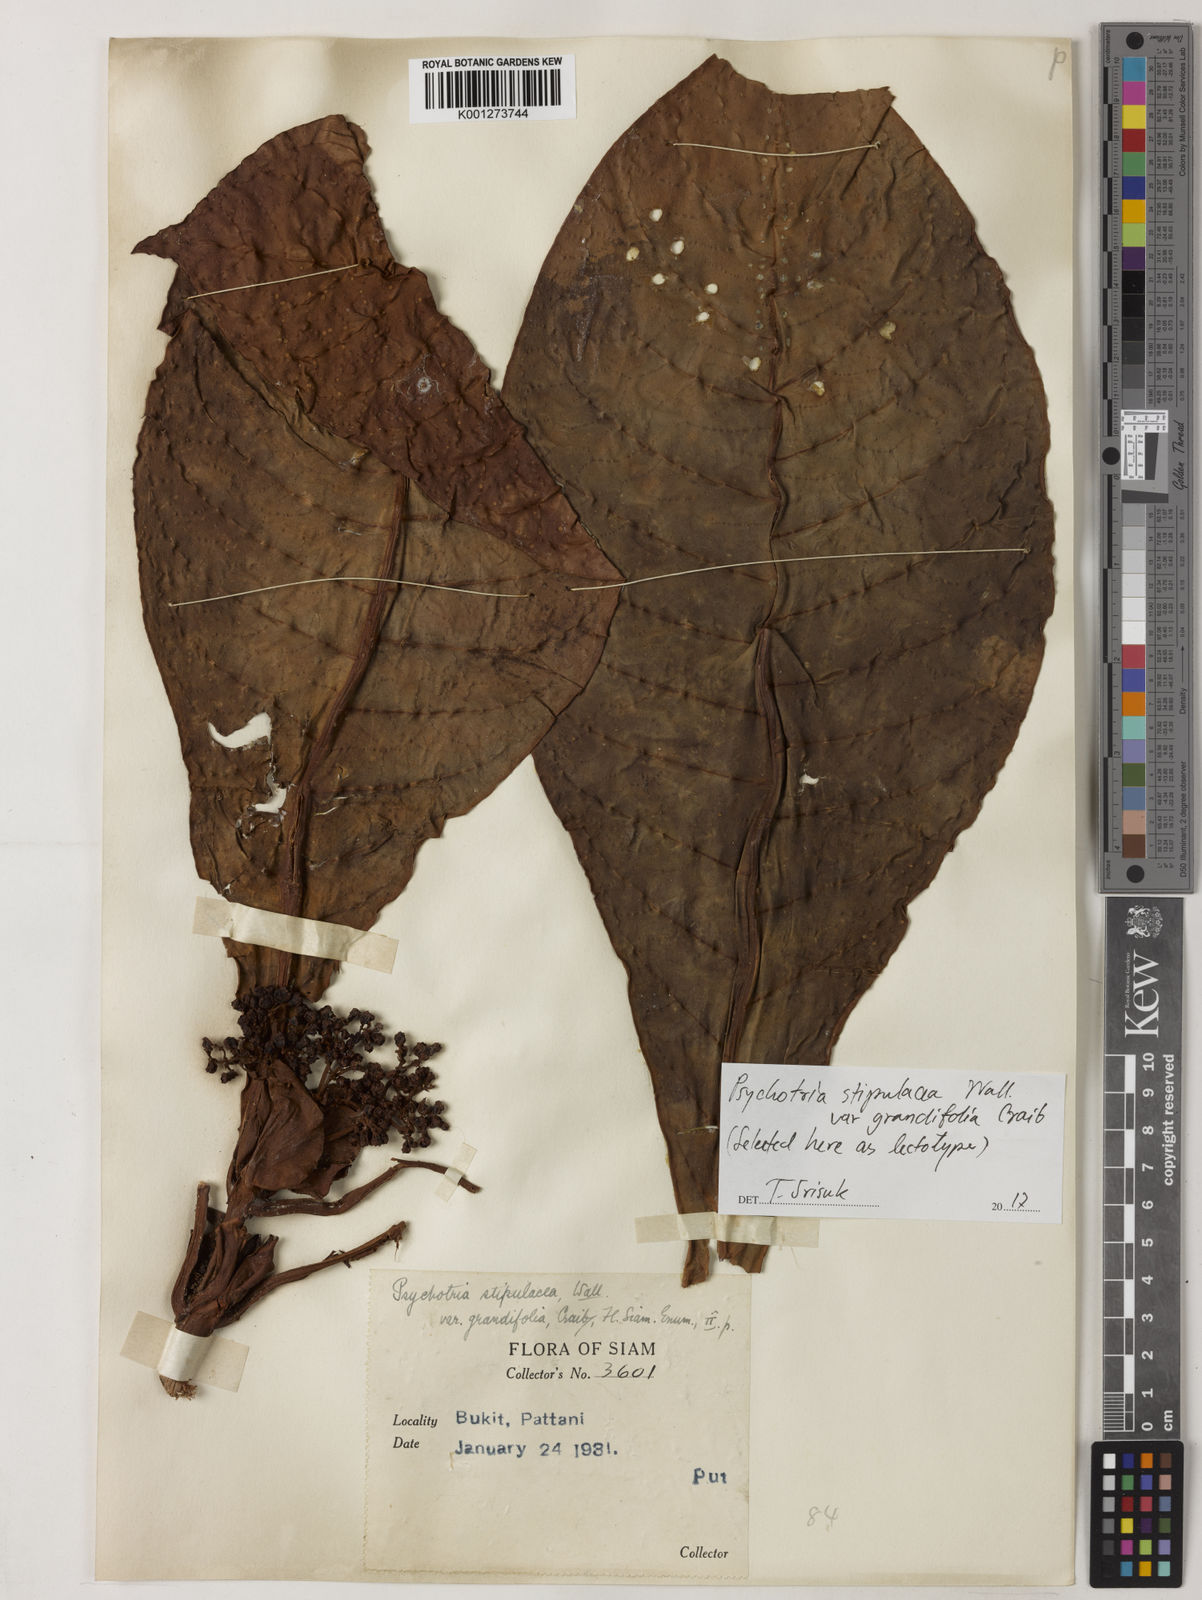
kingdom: Plantae
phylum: Tracheophyta
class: Magnoliopsida
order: Gentianales
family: Rubiaceae
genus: Psychotria
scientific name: Psychotria malayana
